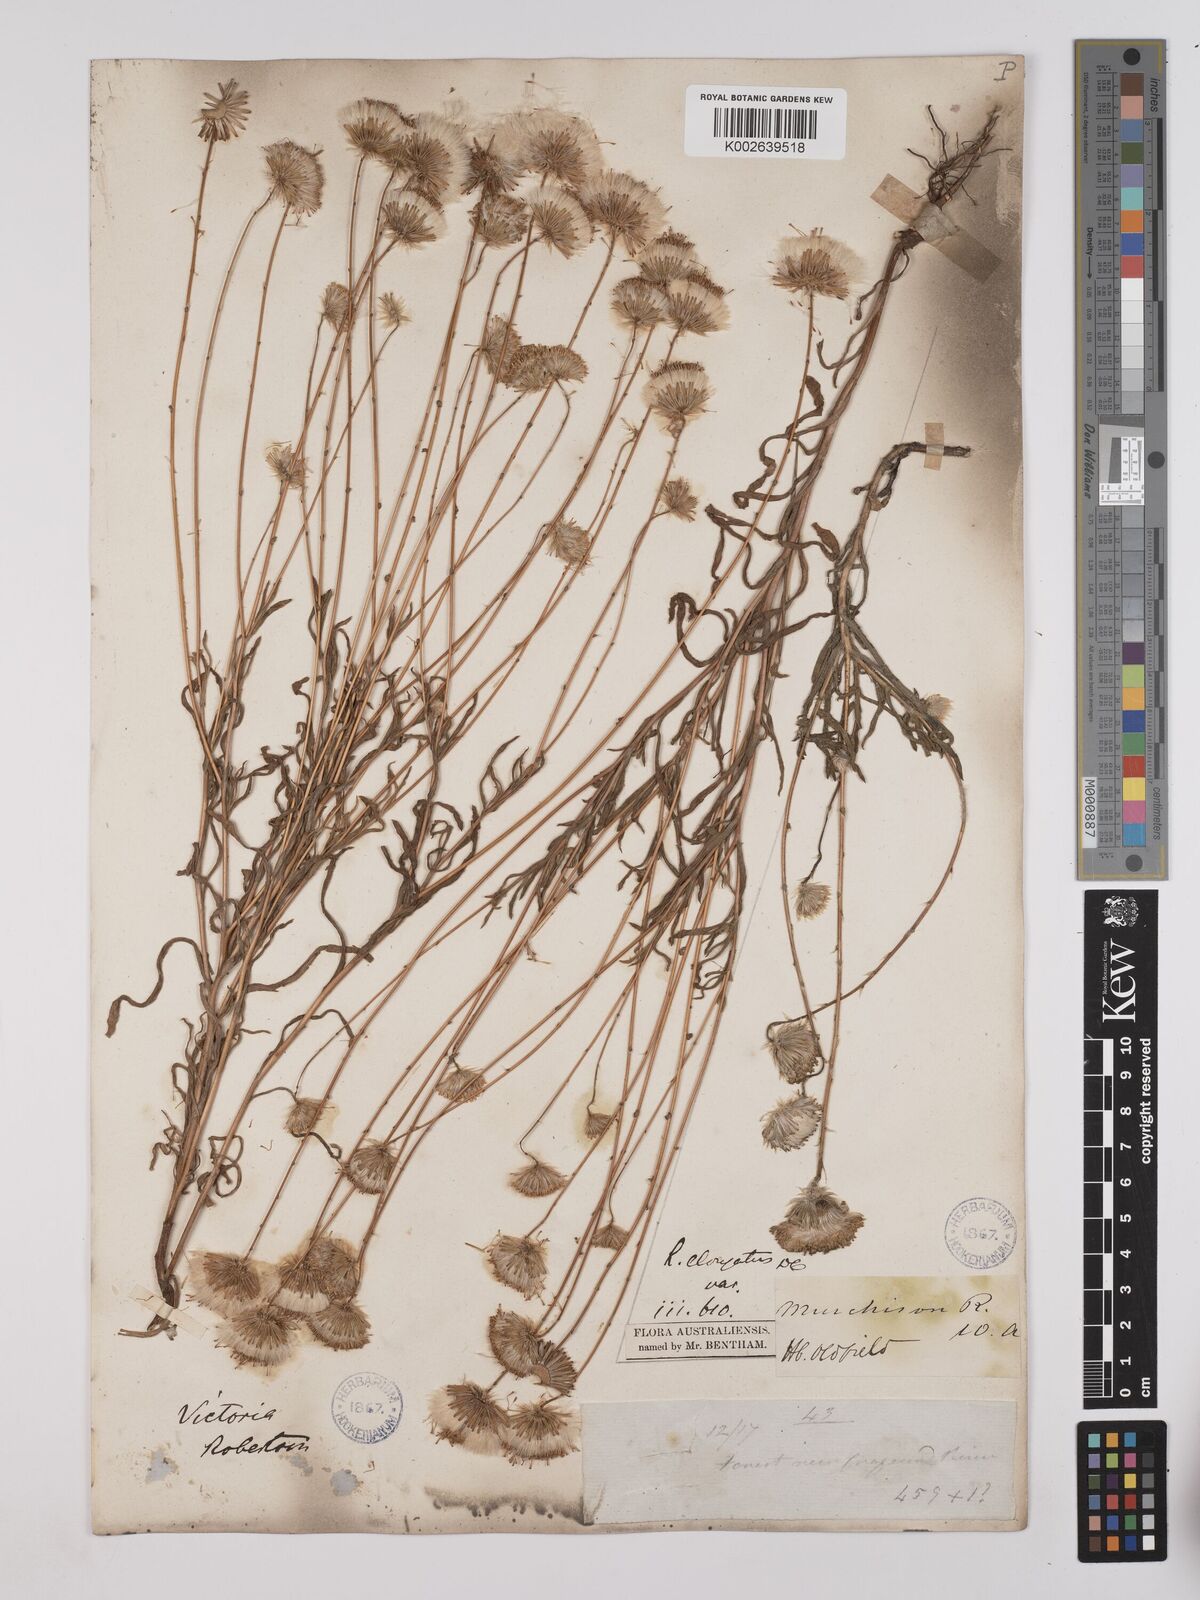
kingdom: Plantae
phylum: Tracheophyta
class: Magnoliopsida
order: Asterales
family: Asteraceae
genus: Leptorhynchos
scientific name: Leptorhynchos elongatus
